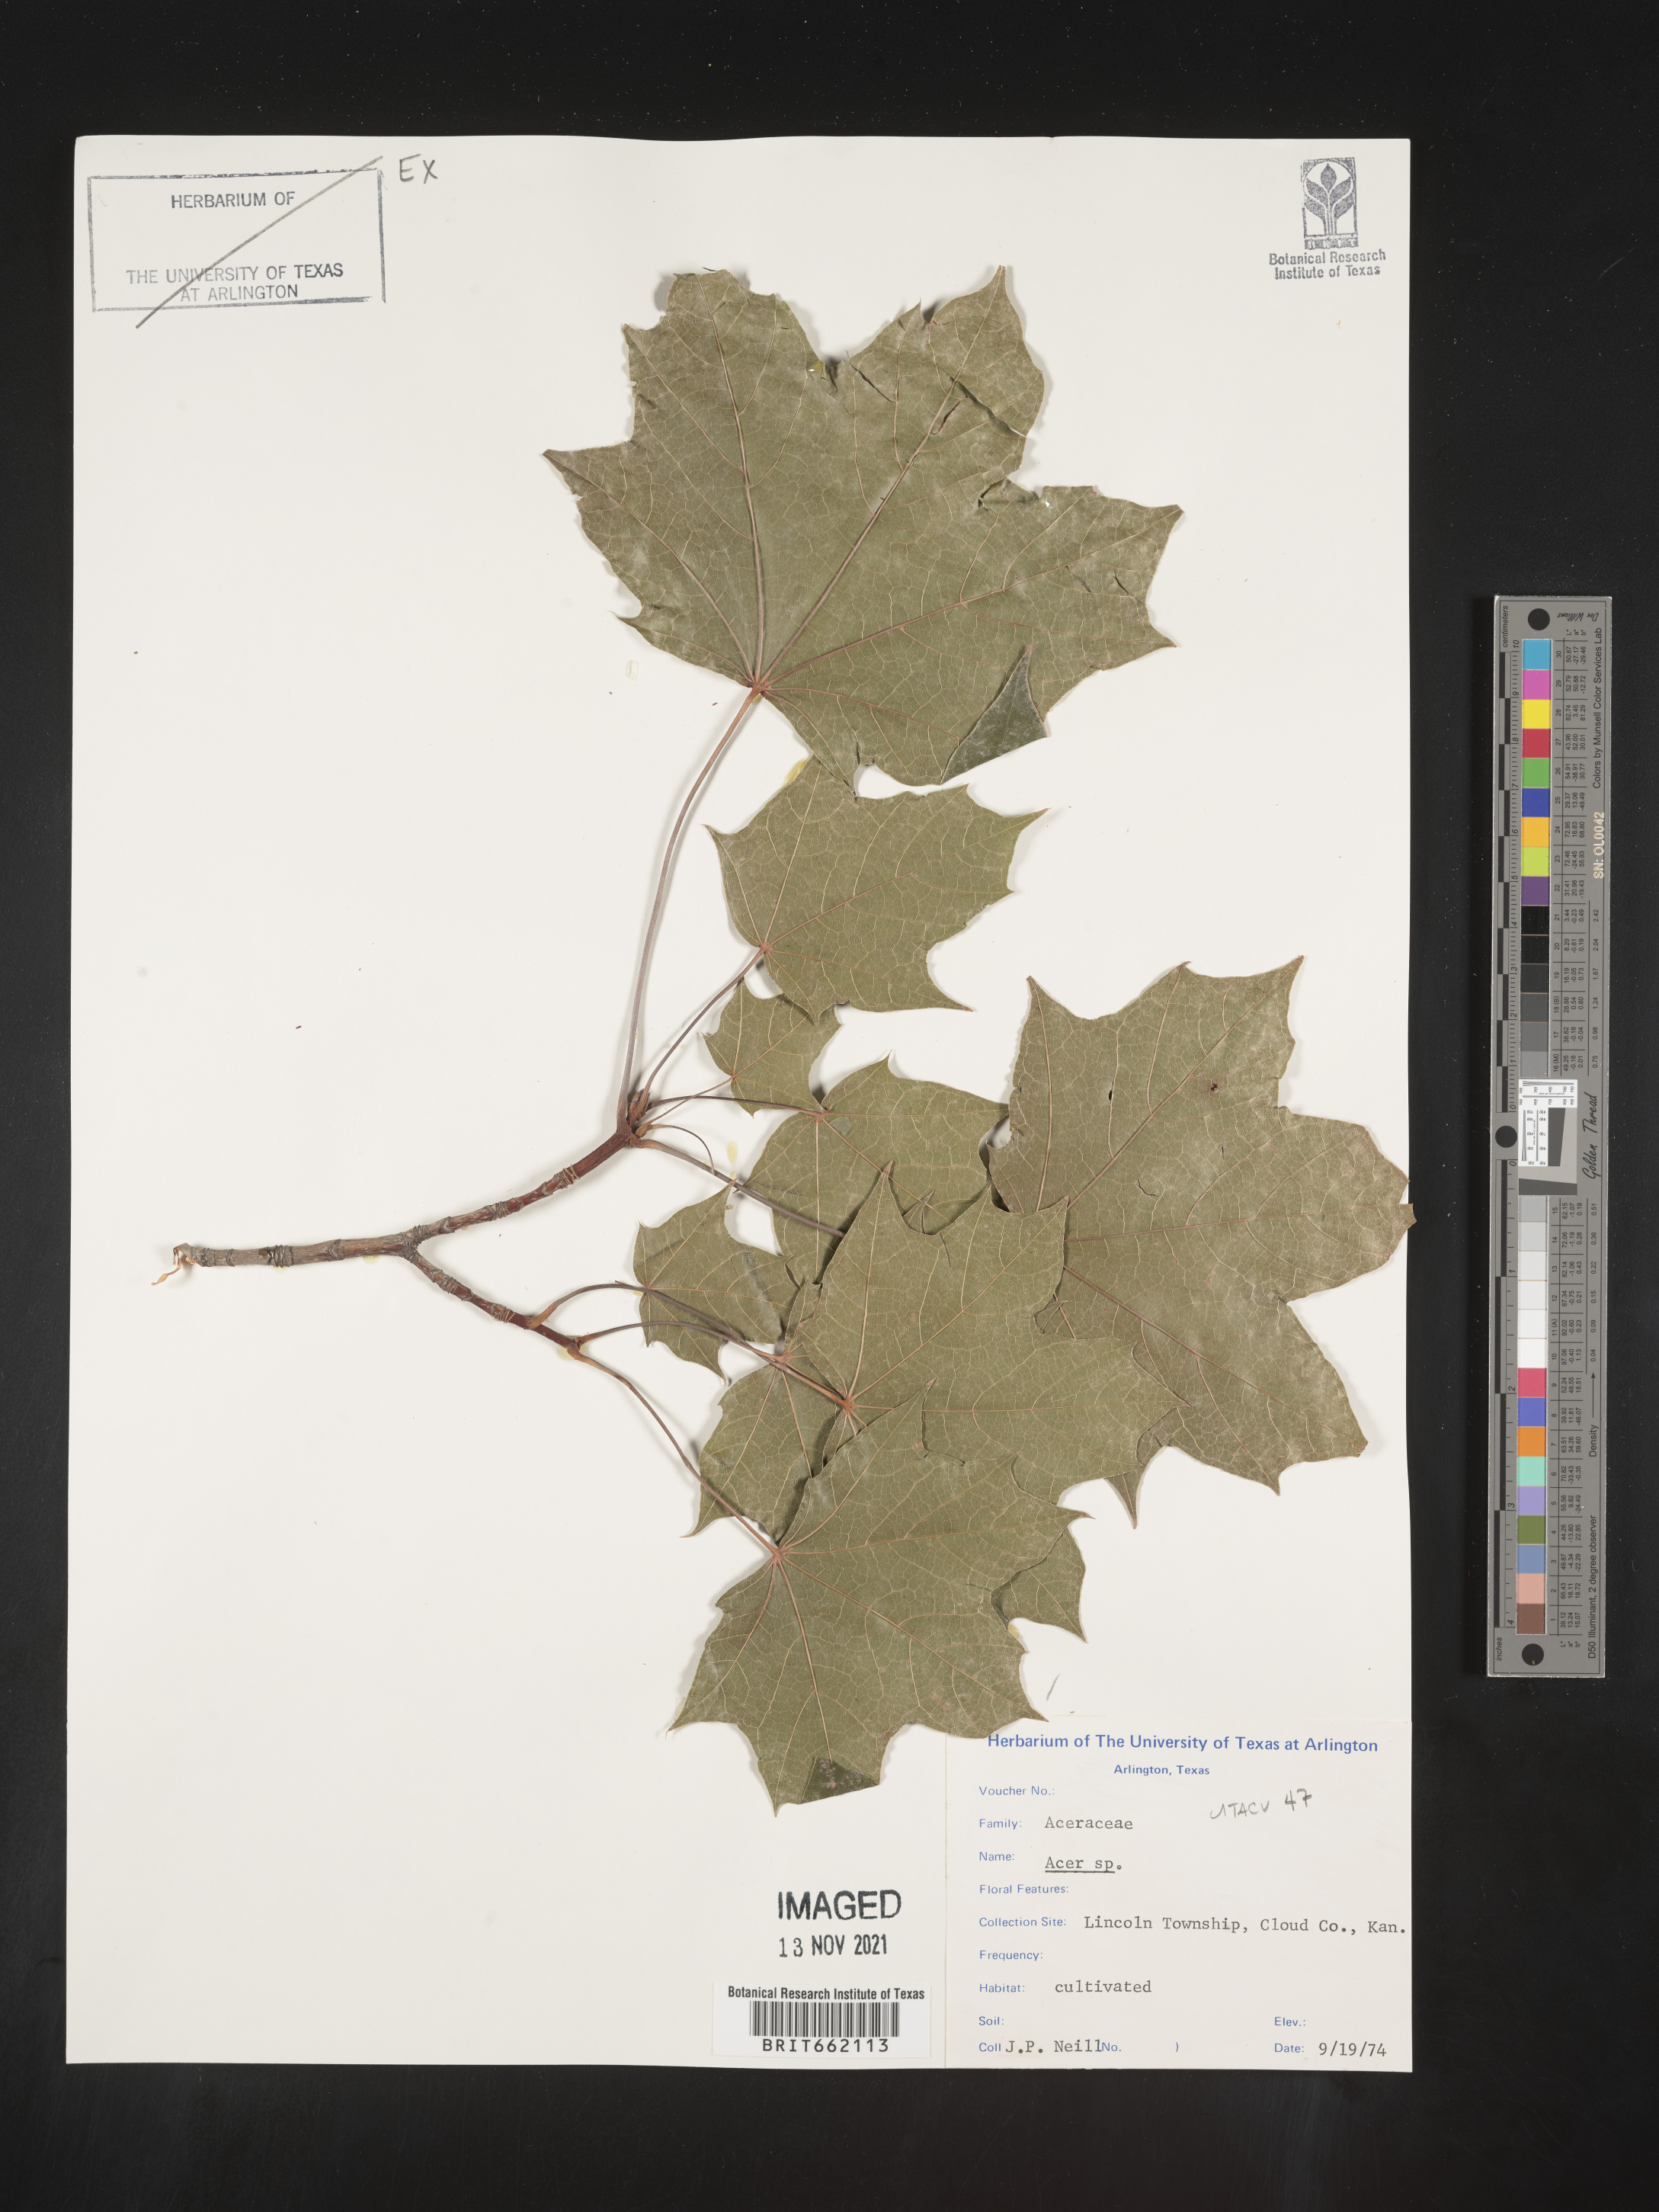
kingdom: Plantae
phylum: Tracheophyta
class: Magnoliopsida
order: Sapindales
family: Sapindaceae
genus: Acer
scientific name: Acer
